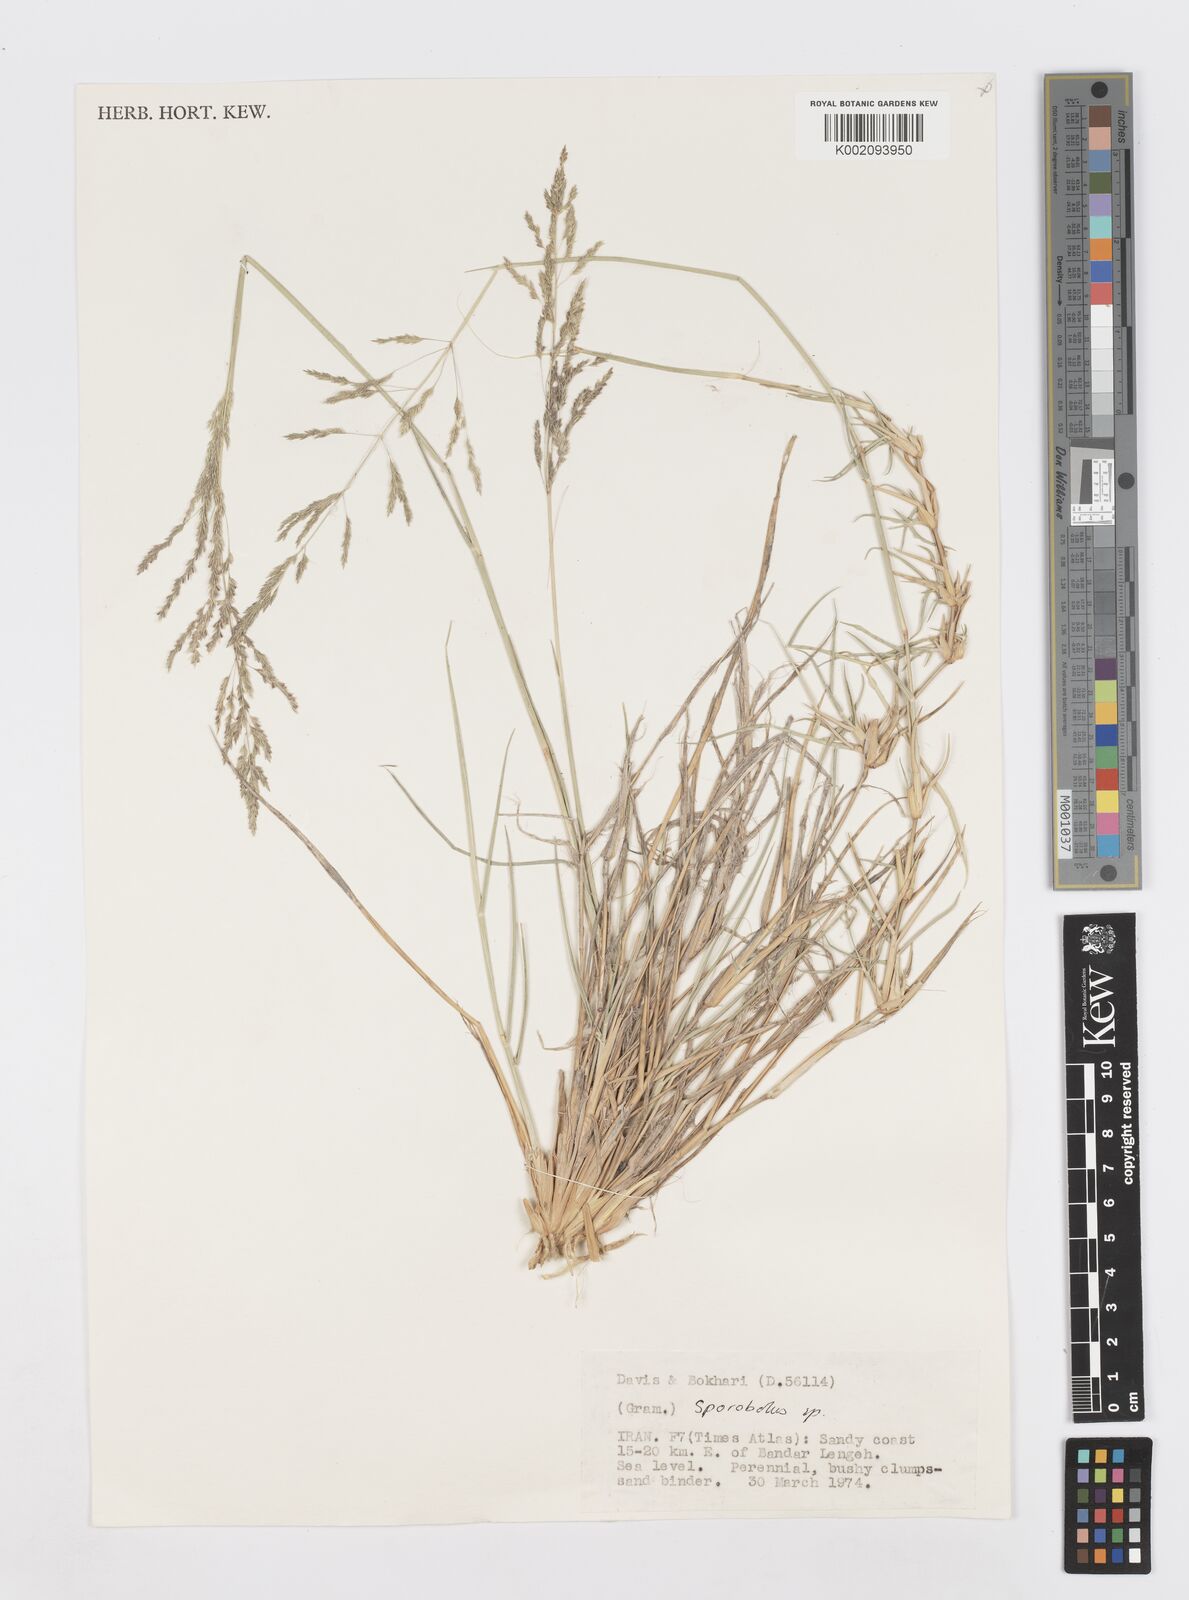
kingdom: Plantae
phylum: Tracheophyta
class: Liliopsida
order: Poales
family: Poaceae
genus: Sporobolus
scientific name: Sporobolus
